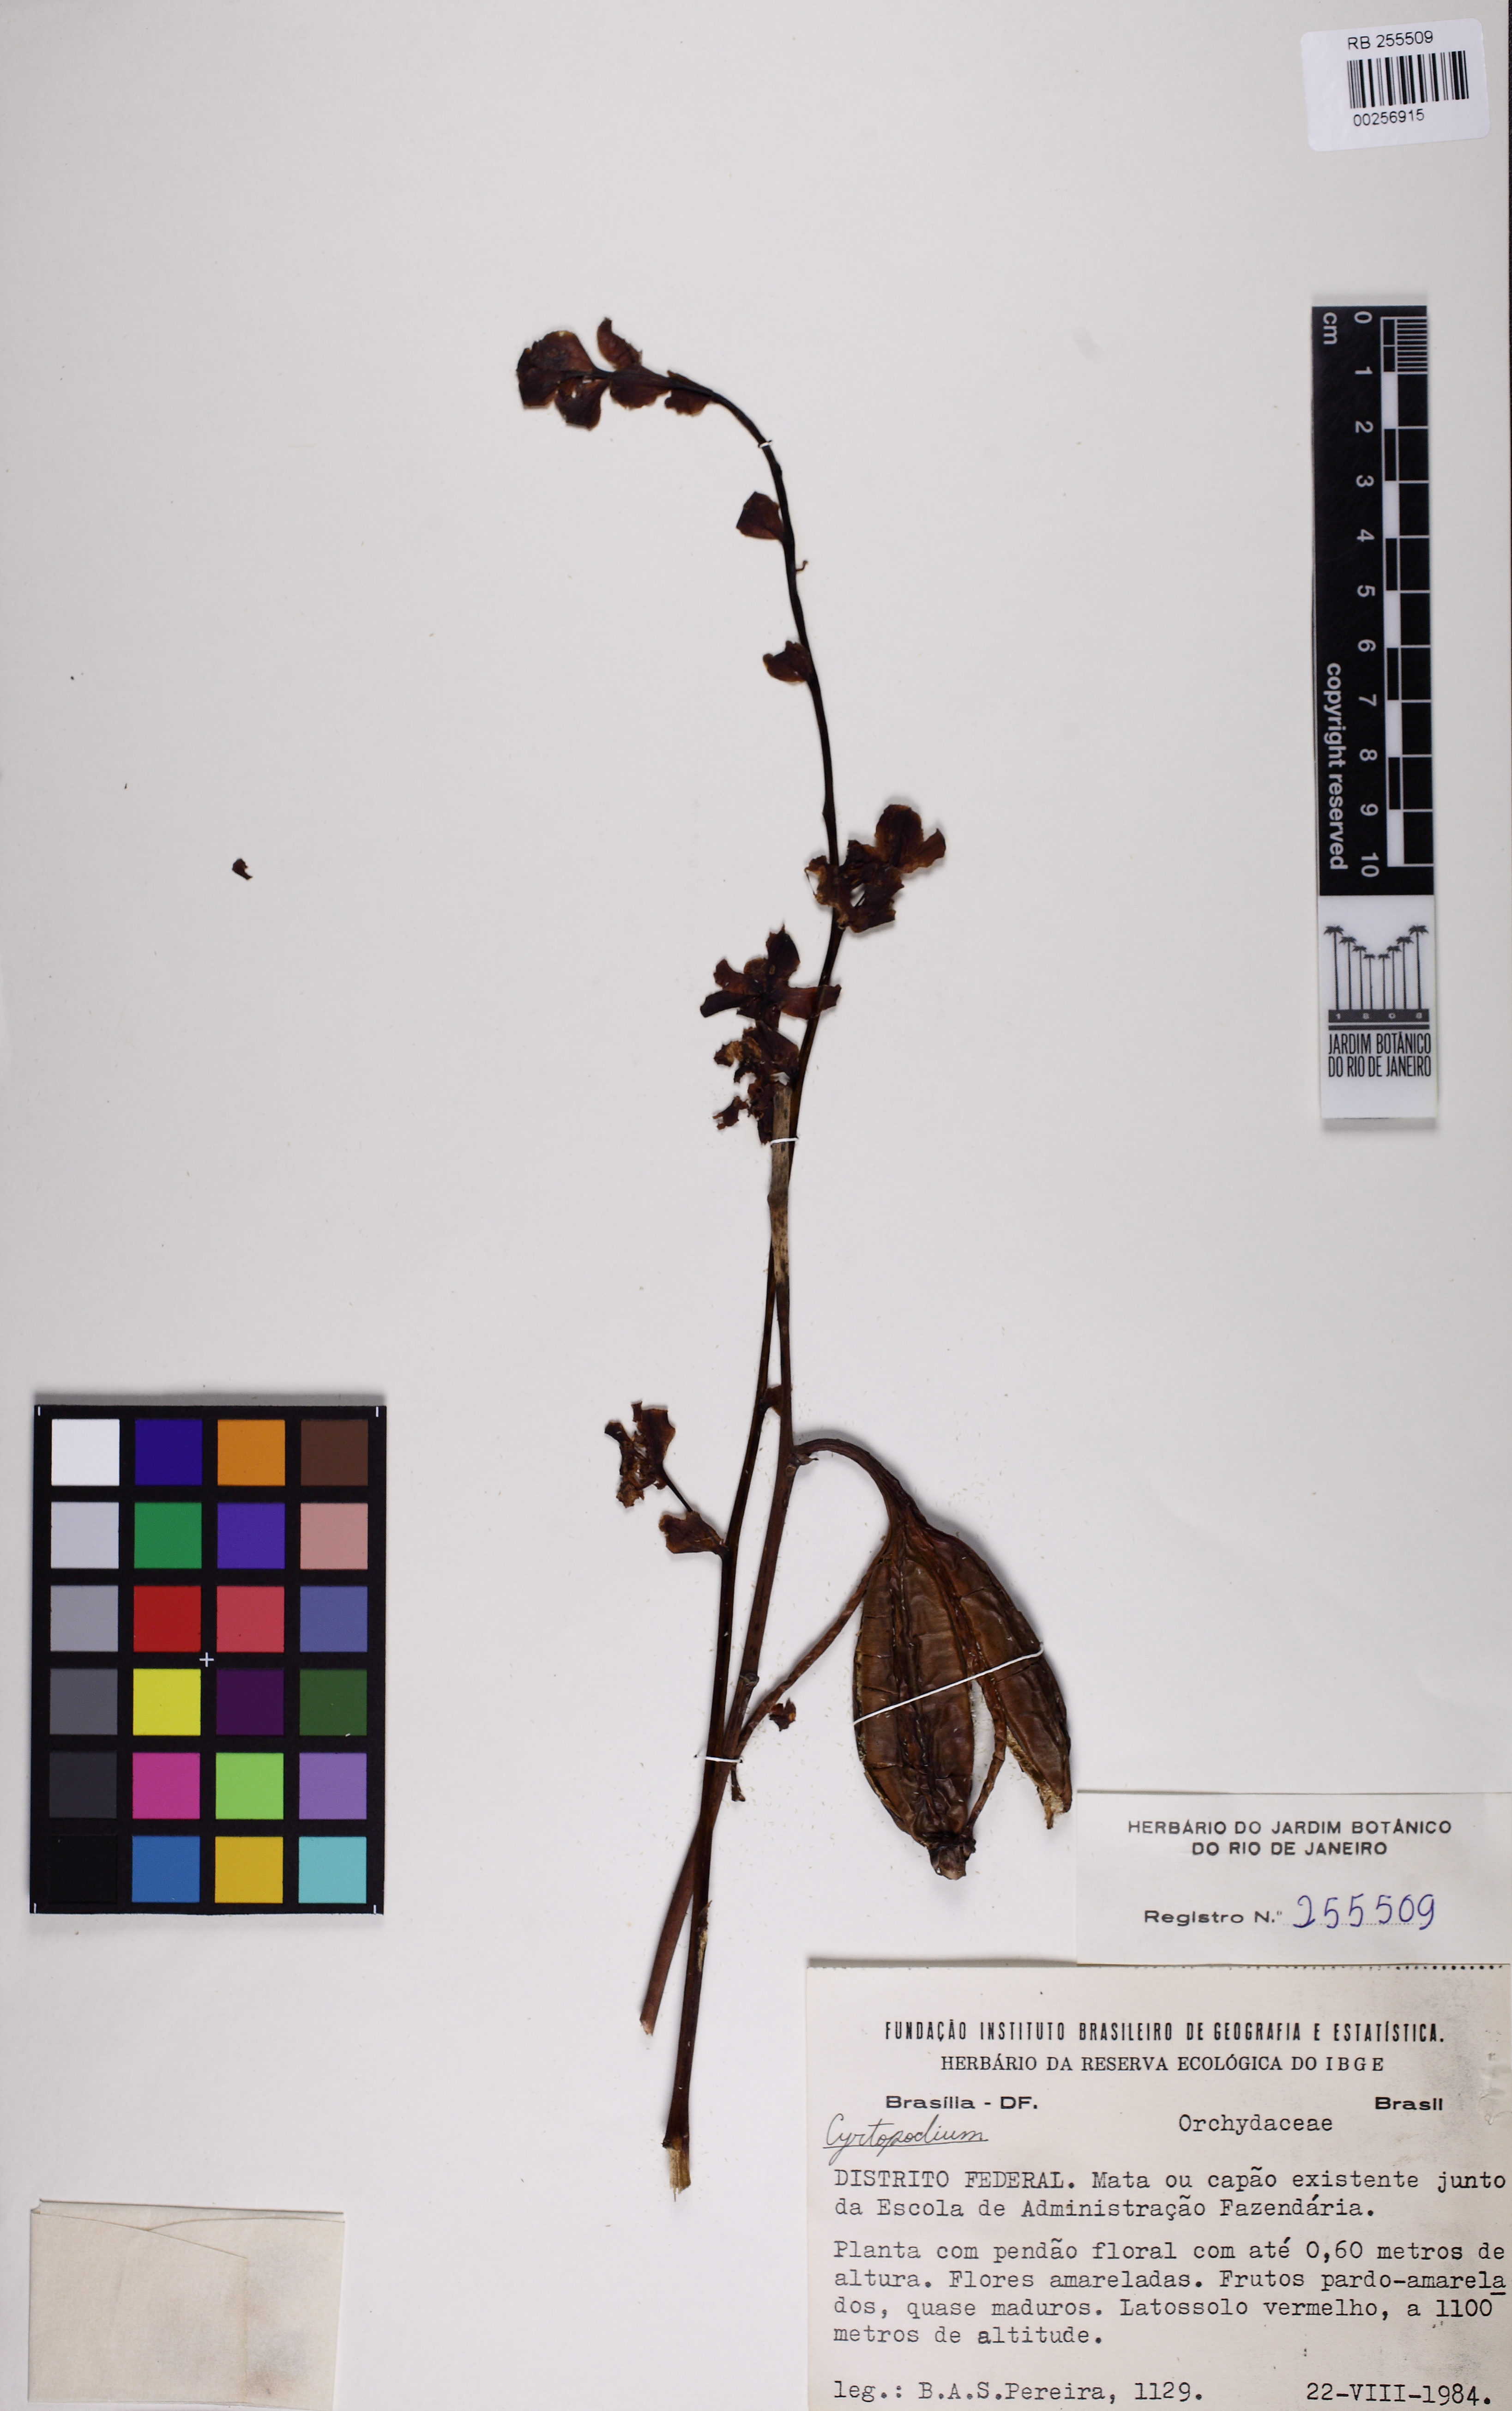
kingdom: Plantae
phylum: Tracheophyta
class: Liliopsida
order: Asparagales
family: Orchidaceae
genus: Cyrtopodium
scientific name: Cyrtopodium
